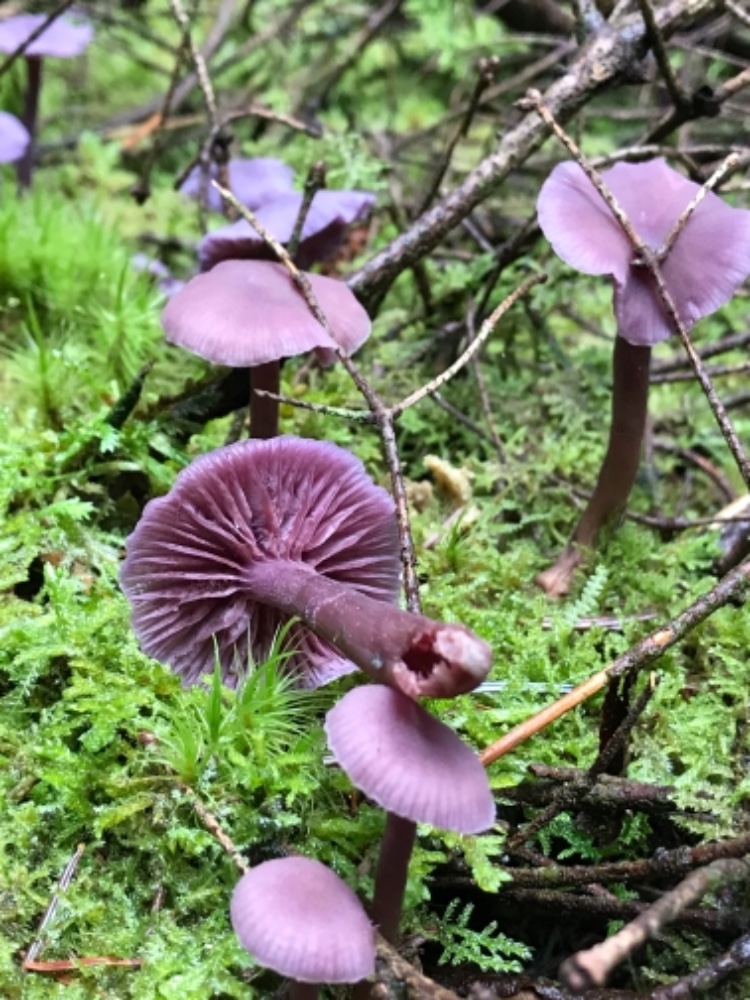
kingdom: Fungi
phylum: Basidiomycota
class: Agaricomycetes
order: Agaricales
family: Hydnangiaceae
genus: Laccaria
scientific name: Laccaria amethystina
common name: violet ametysthat
